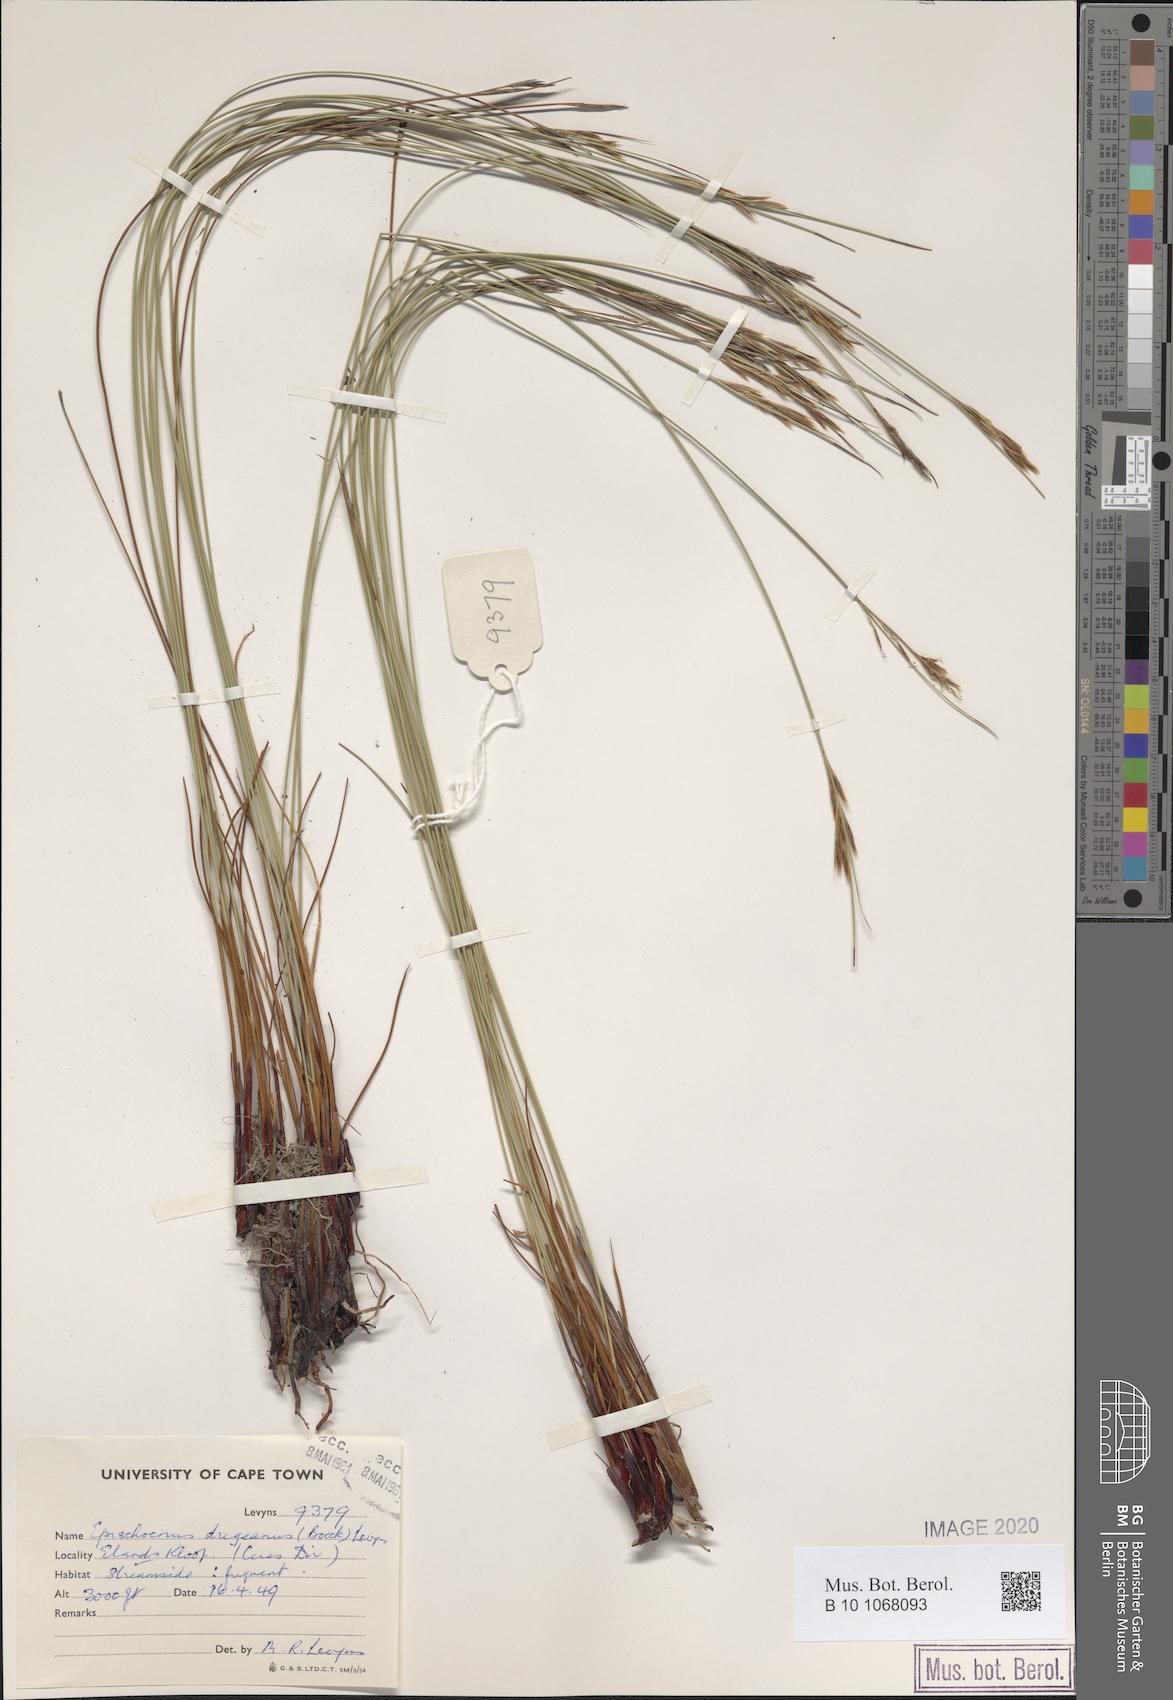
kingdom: Plantae
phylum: Tracheophyta
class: Liliopsida
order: Poales
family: Cyperaceae
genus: Schoenus
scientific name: Schoenus dregeanus
